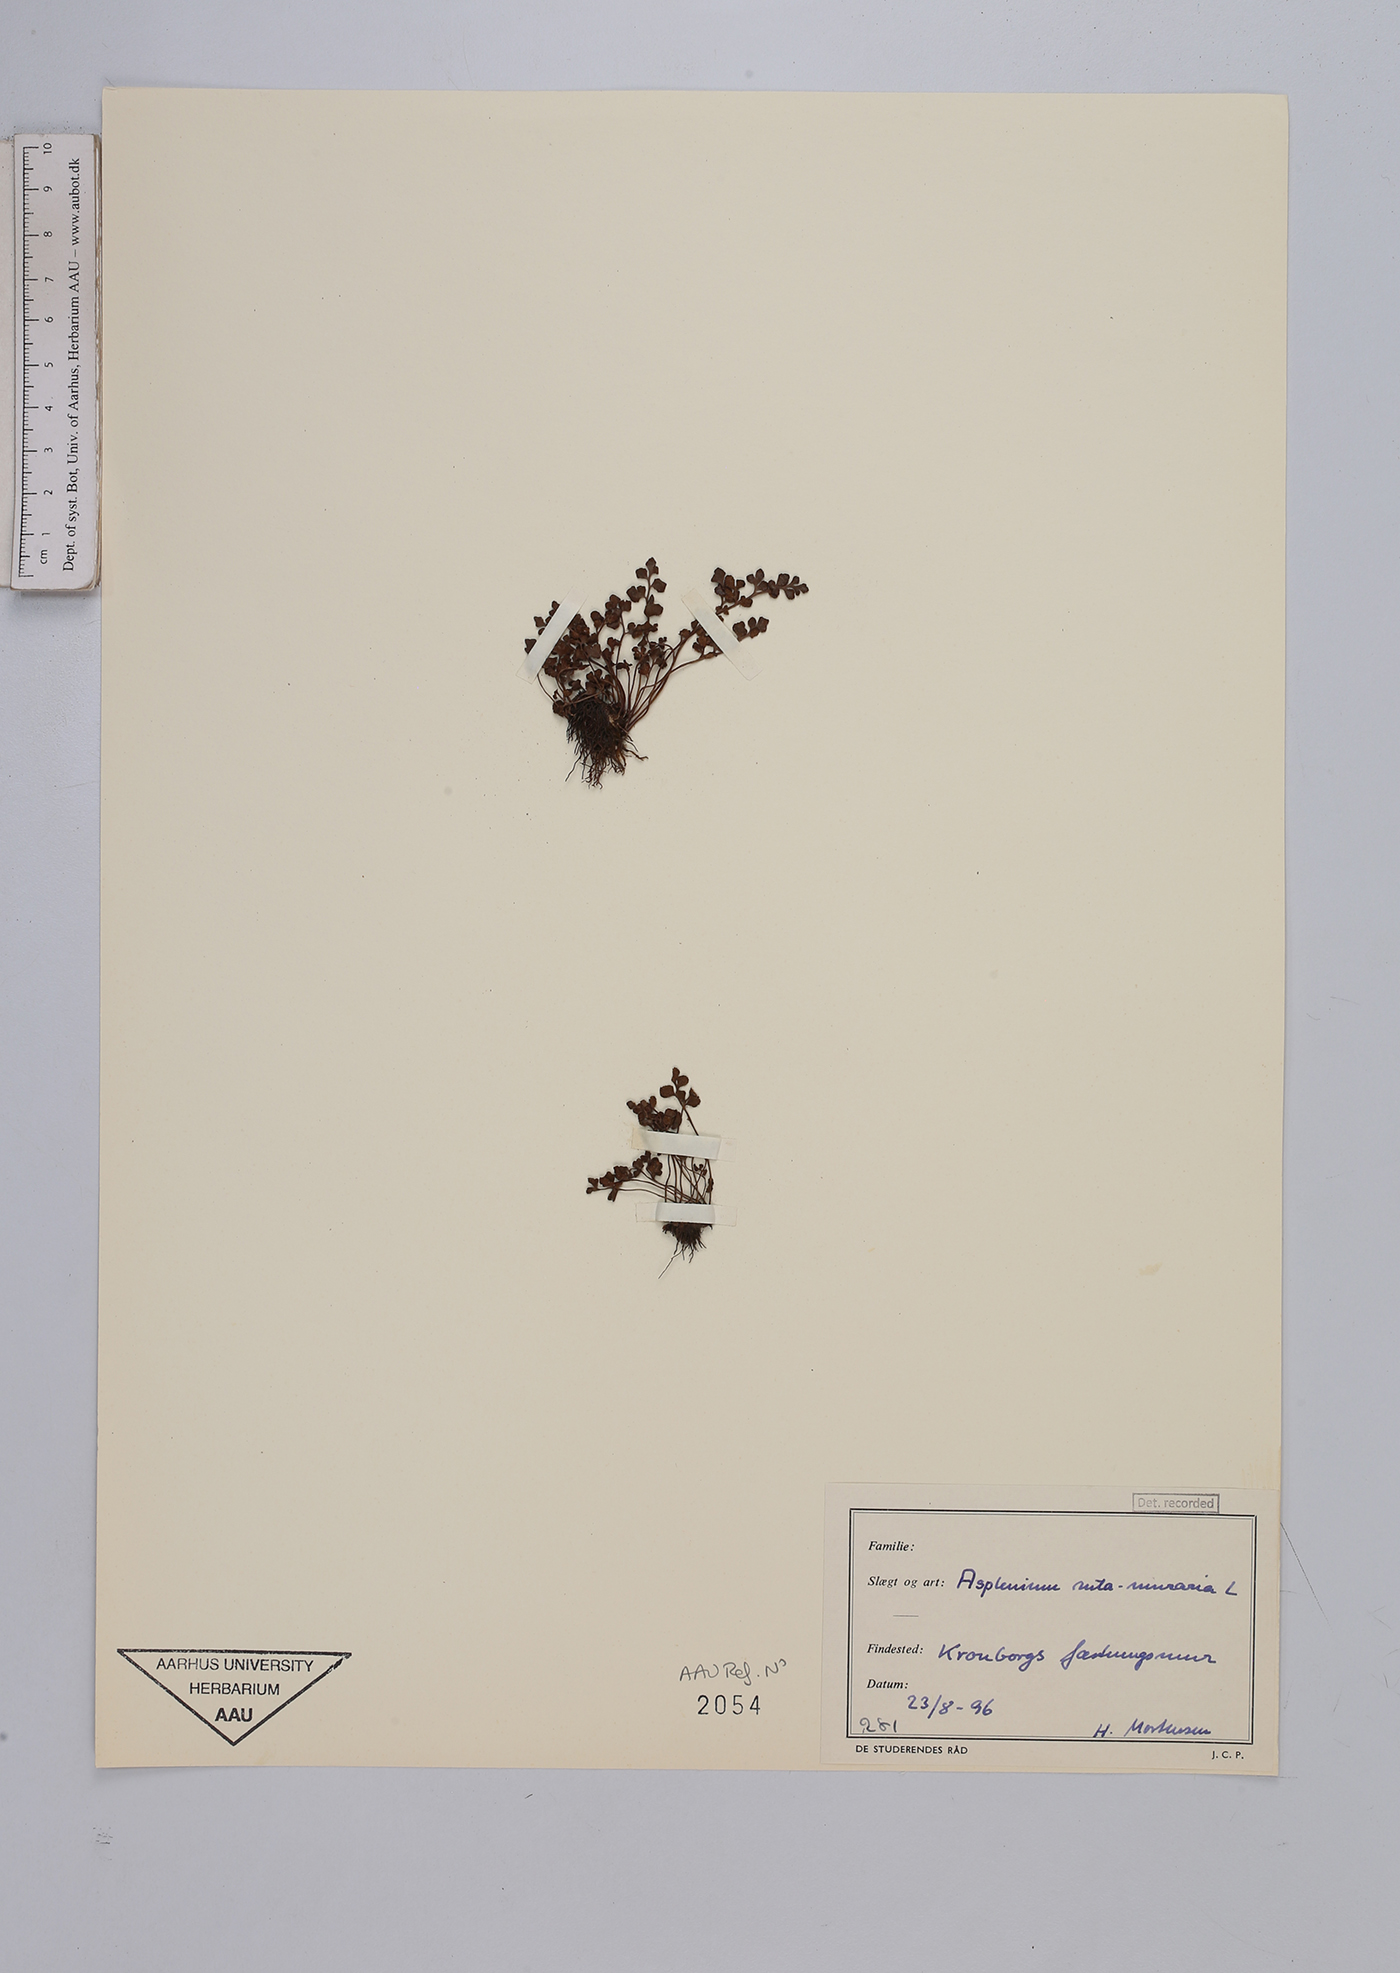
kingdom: Plantae
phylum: Tracheophyta
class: Polypodiopsida
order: Polypodiales
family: Aspleniaceae
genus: Asplenium
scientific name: Asplenium ruta-muraria
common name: Wall-rue
